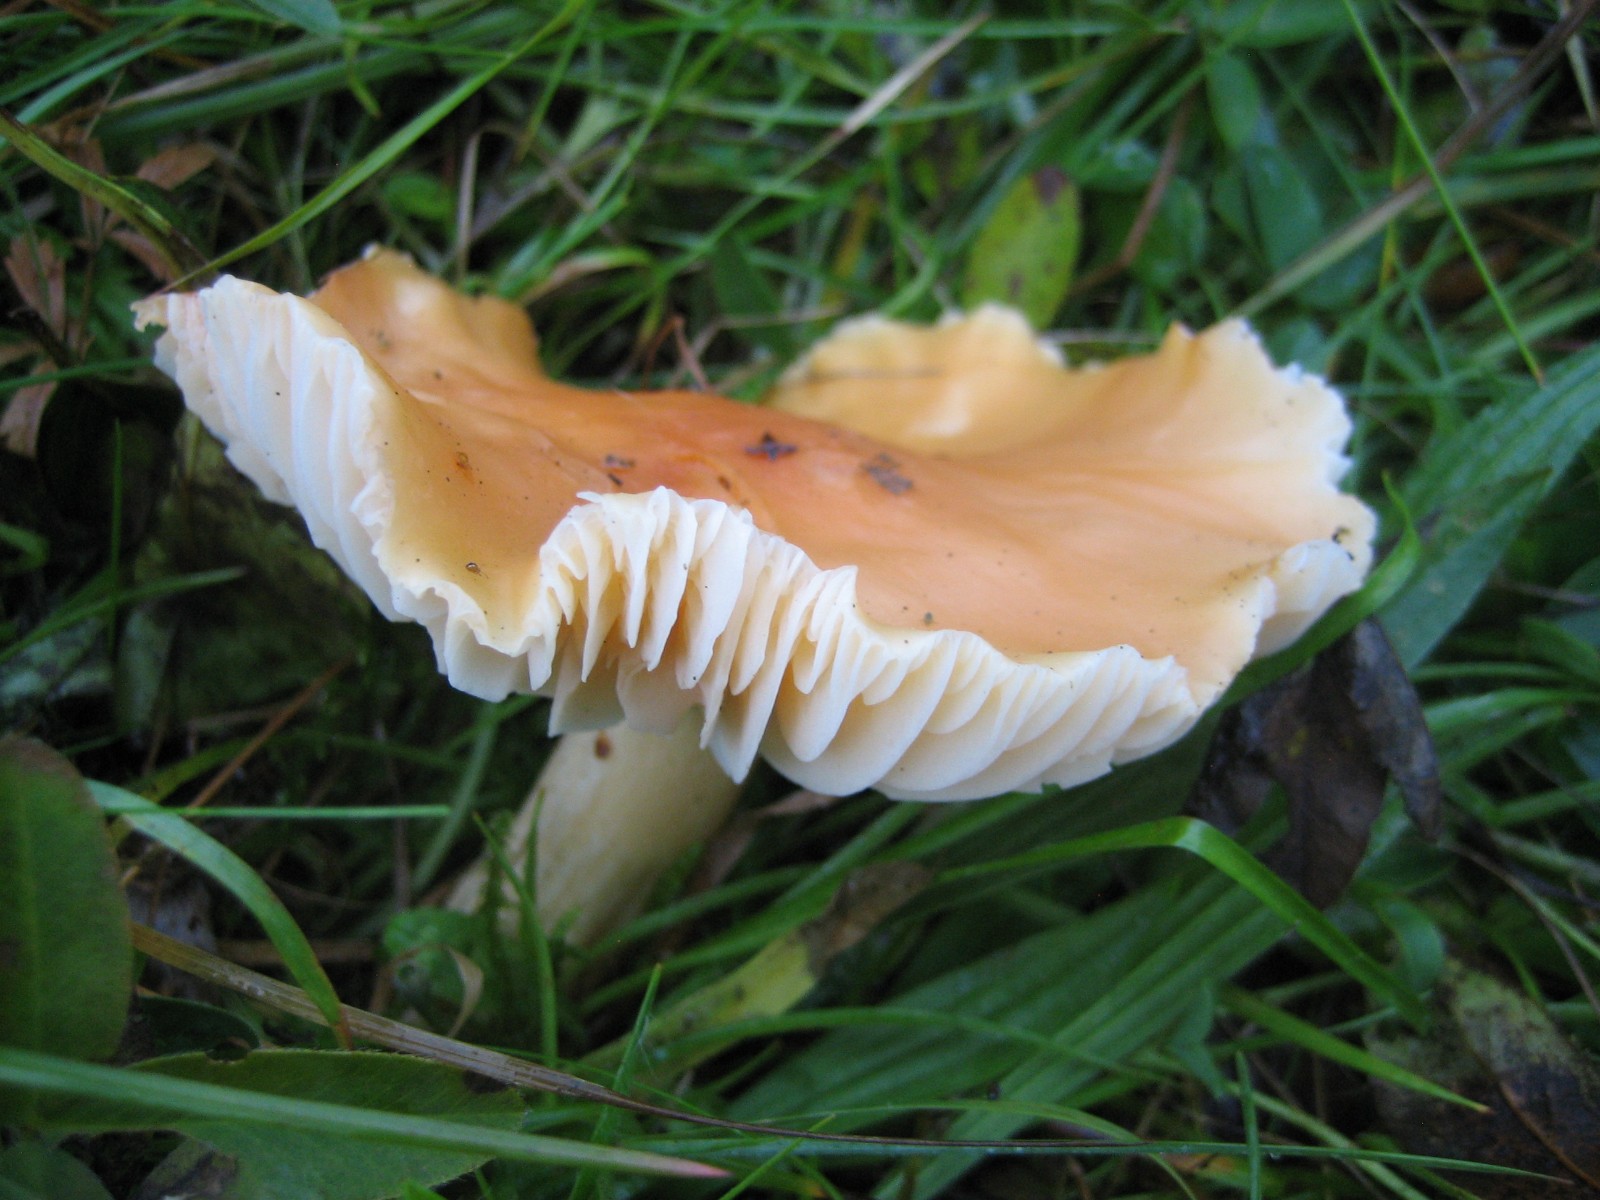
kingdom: Fungi
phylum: Basidiomycota
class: Agaricomycetes
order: Agaricales
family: Hygrophoraceae
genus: Cuphophyllus
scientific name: Cuphophyllus pratensis
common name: eng-vokshat
